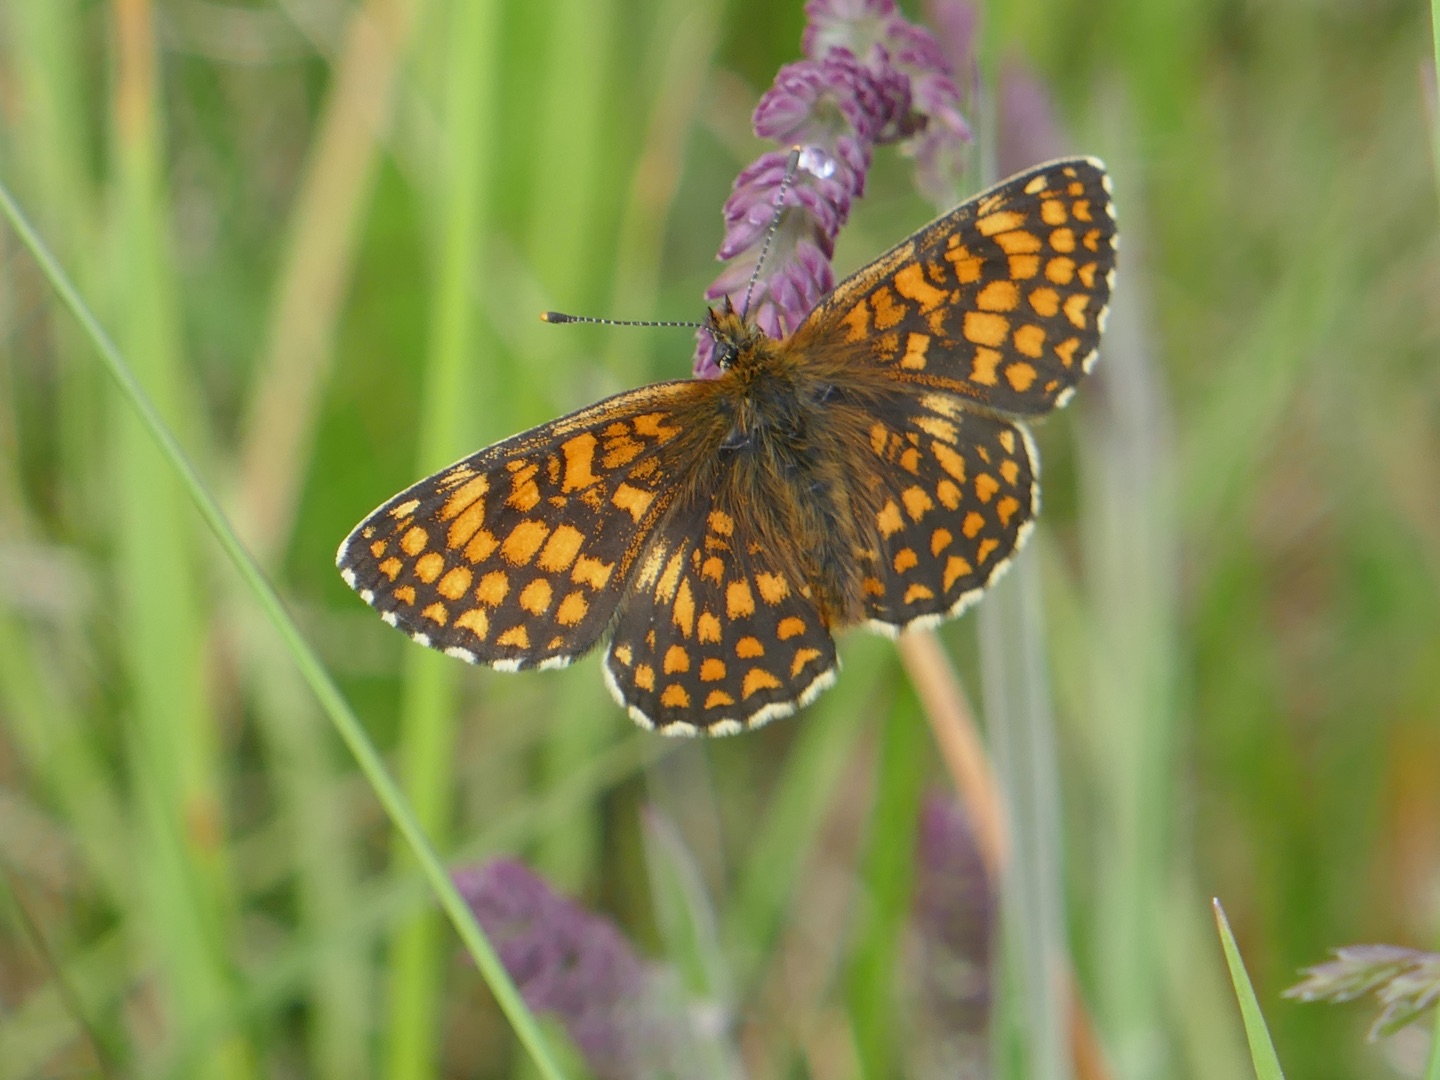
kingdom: Animalia
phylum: Arthropoda
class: Insecta
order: Lepidoptera
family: Nymphalidae
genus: Mellicta
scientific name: Mellicta athalia
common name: Brun pletvinge
